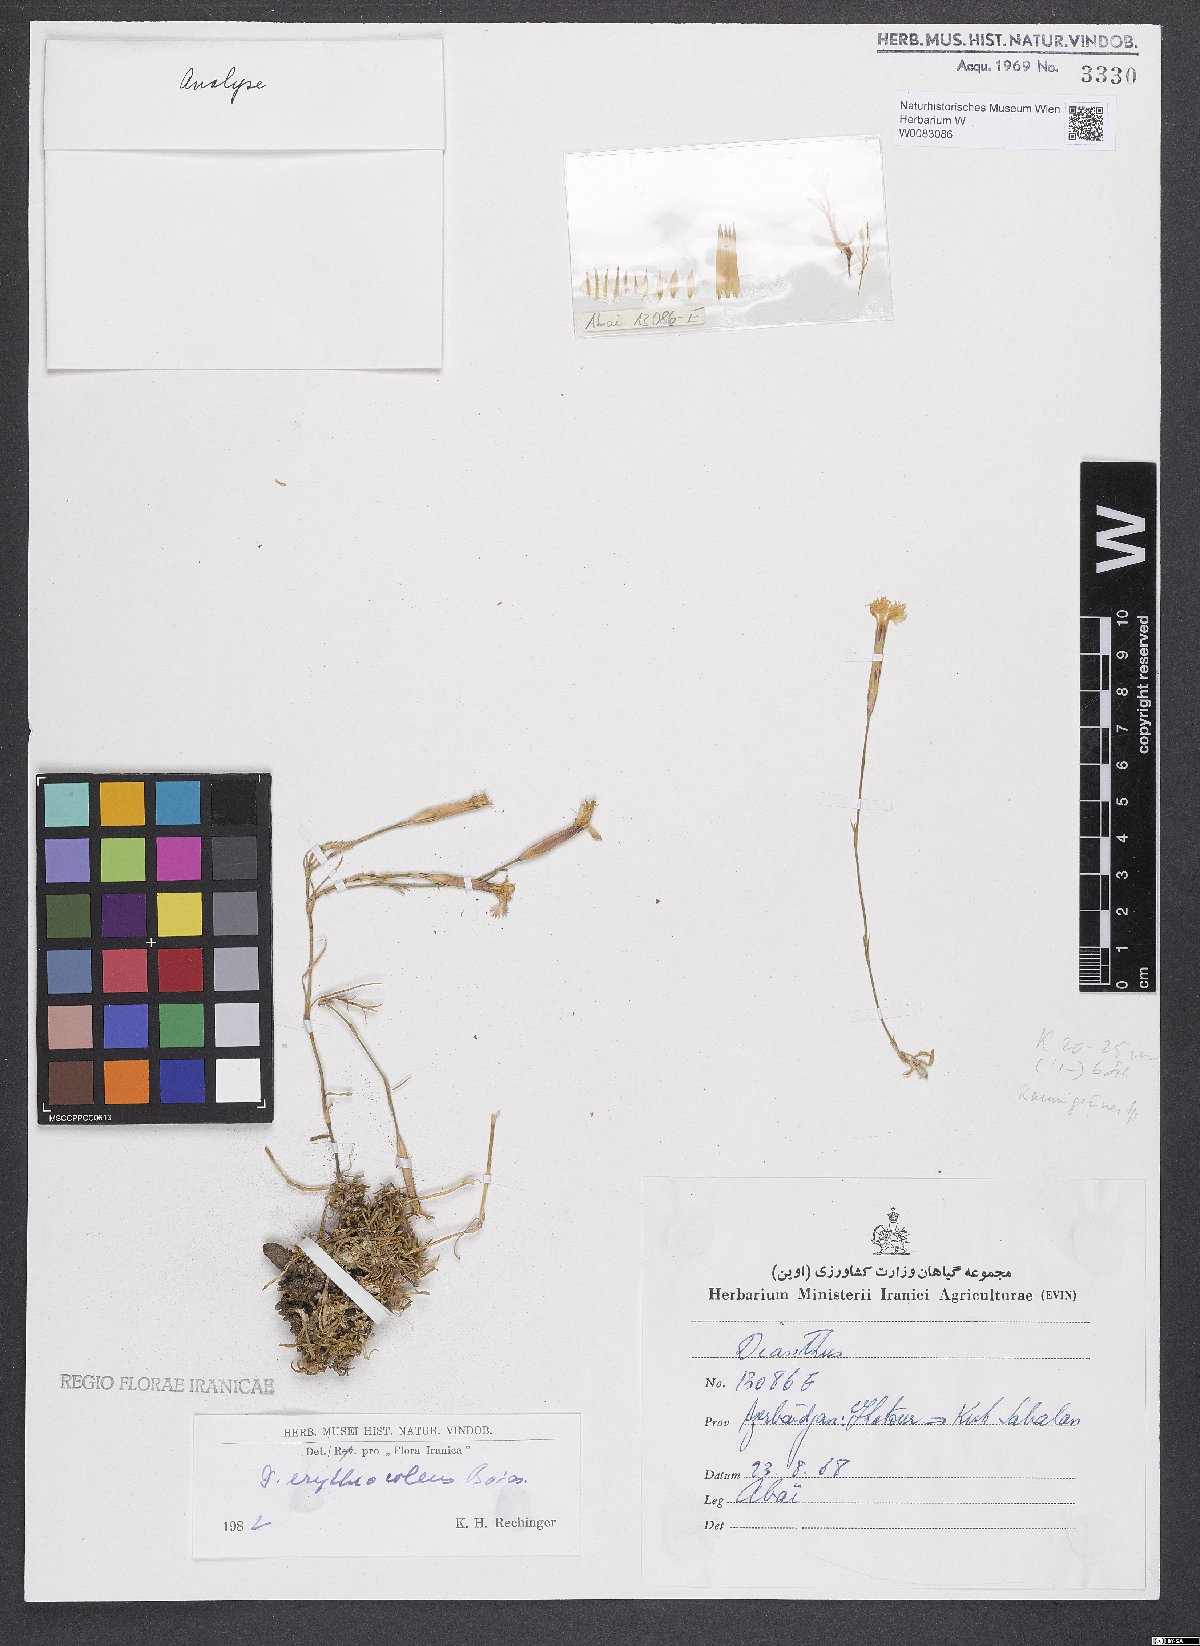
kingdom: Plantae
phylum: Tracheophyta
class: Magnoliopsida
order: Caryophyllales
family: Caryophyllaceae
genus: Dianthus
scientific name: Dianthus erythrocoleus
